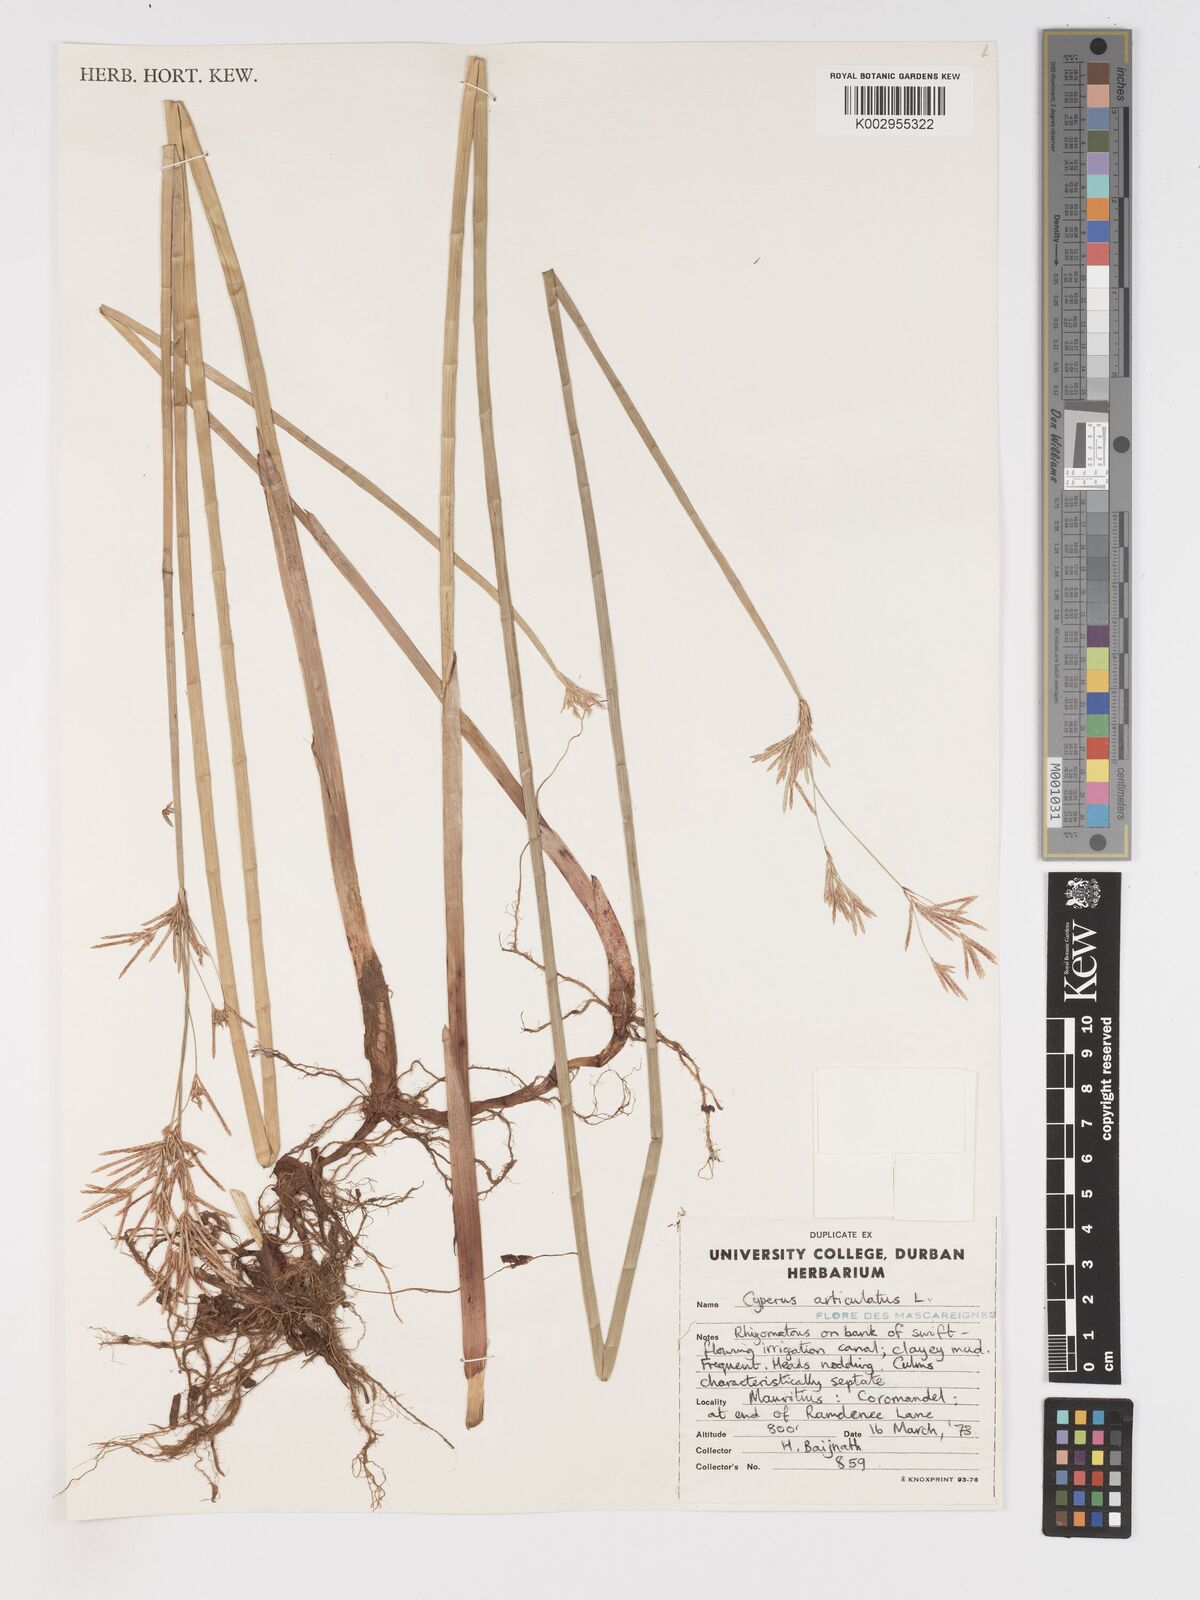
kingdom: Plantae
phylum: Tracheophyta
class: Liliopsida
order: Poales
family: Cyperaceae
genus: Cyperus
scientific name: Cyperus articulatus
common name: Jointed flatsedge
